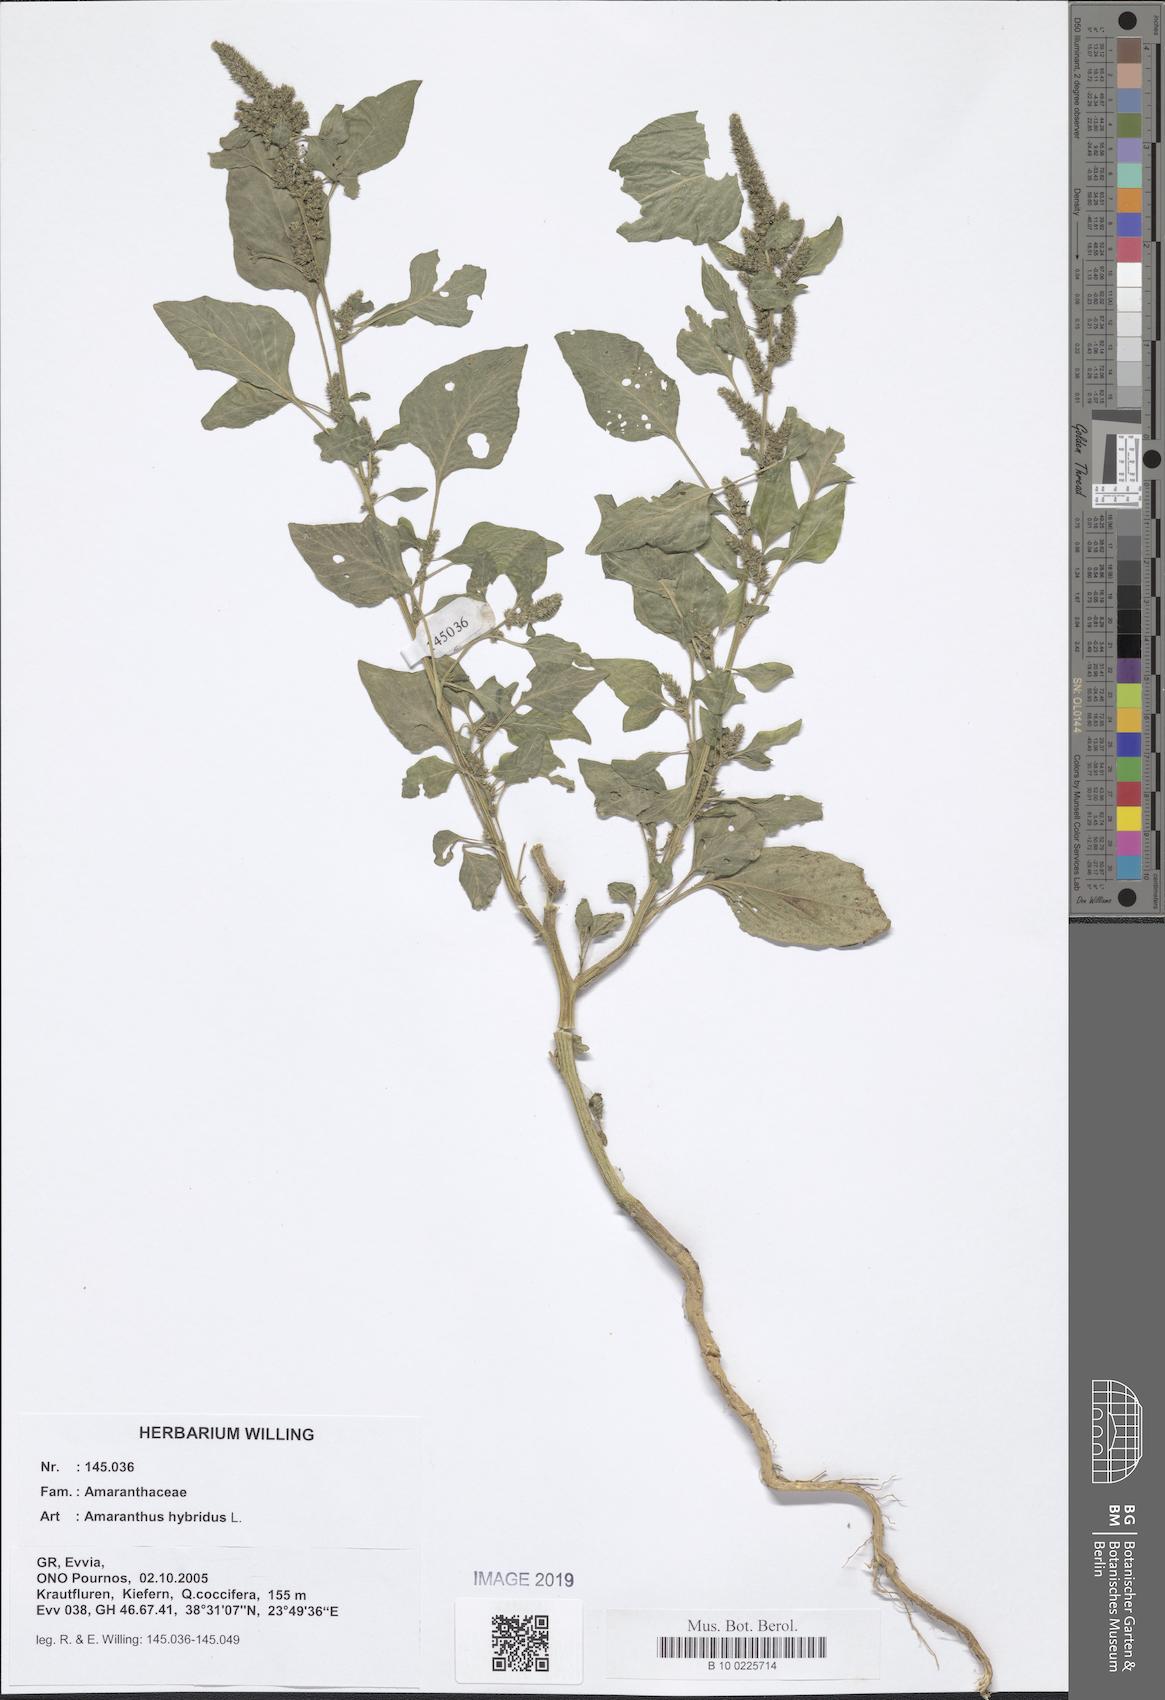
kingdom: Plantae
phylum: Tracheophyta
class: Magnoliopsida
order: Caryophyllales
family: Amaranthaceae
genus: Amaranthus
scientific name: Amaranthus hybridus
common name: Green amaranth
